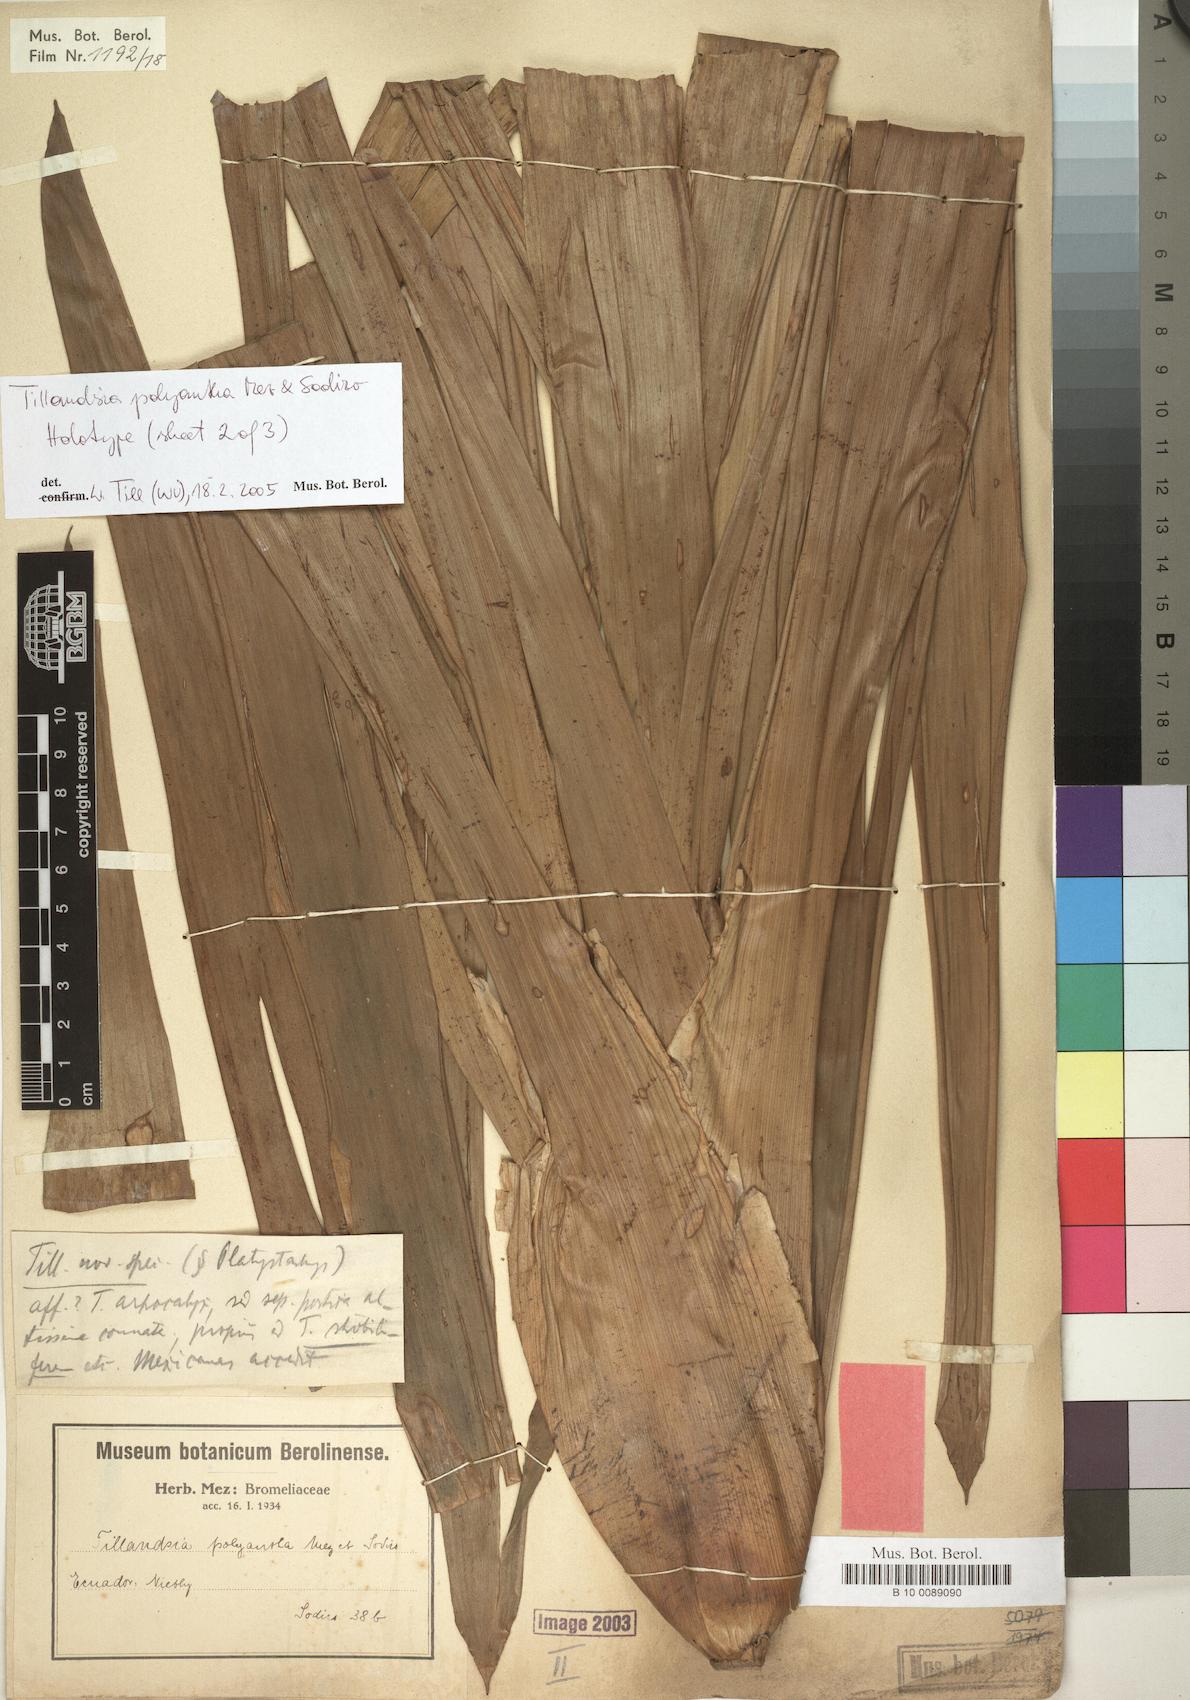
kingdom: Plantae
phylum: Tracheophyta
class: Liliopsida
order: Poales
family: Bromeliaceae
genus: Tillandsia
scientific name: Tillandsia polyantha
